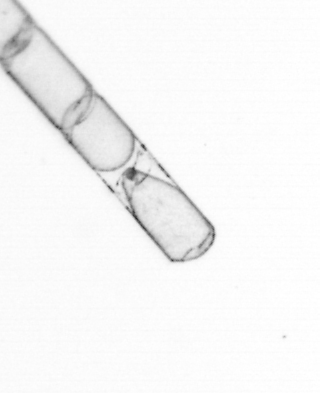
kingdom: Chromista
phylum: Ochrophyta
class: Bacillariophyceae
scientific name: Bacillariophyceae
